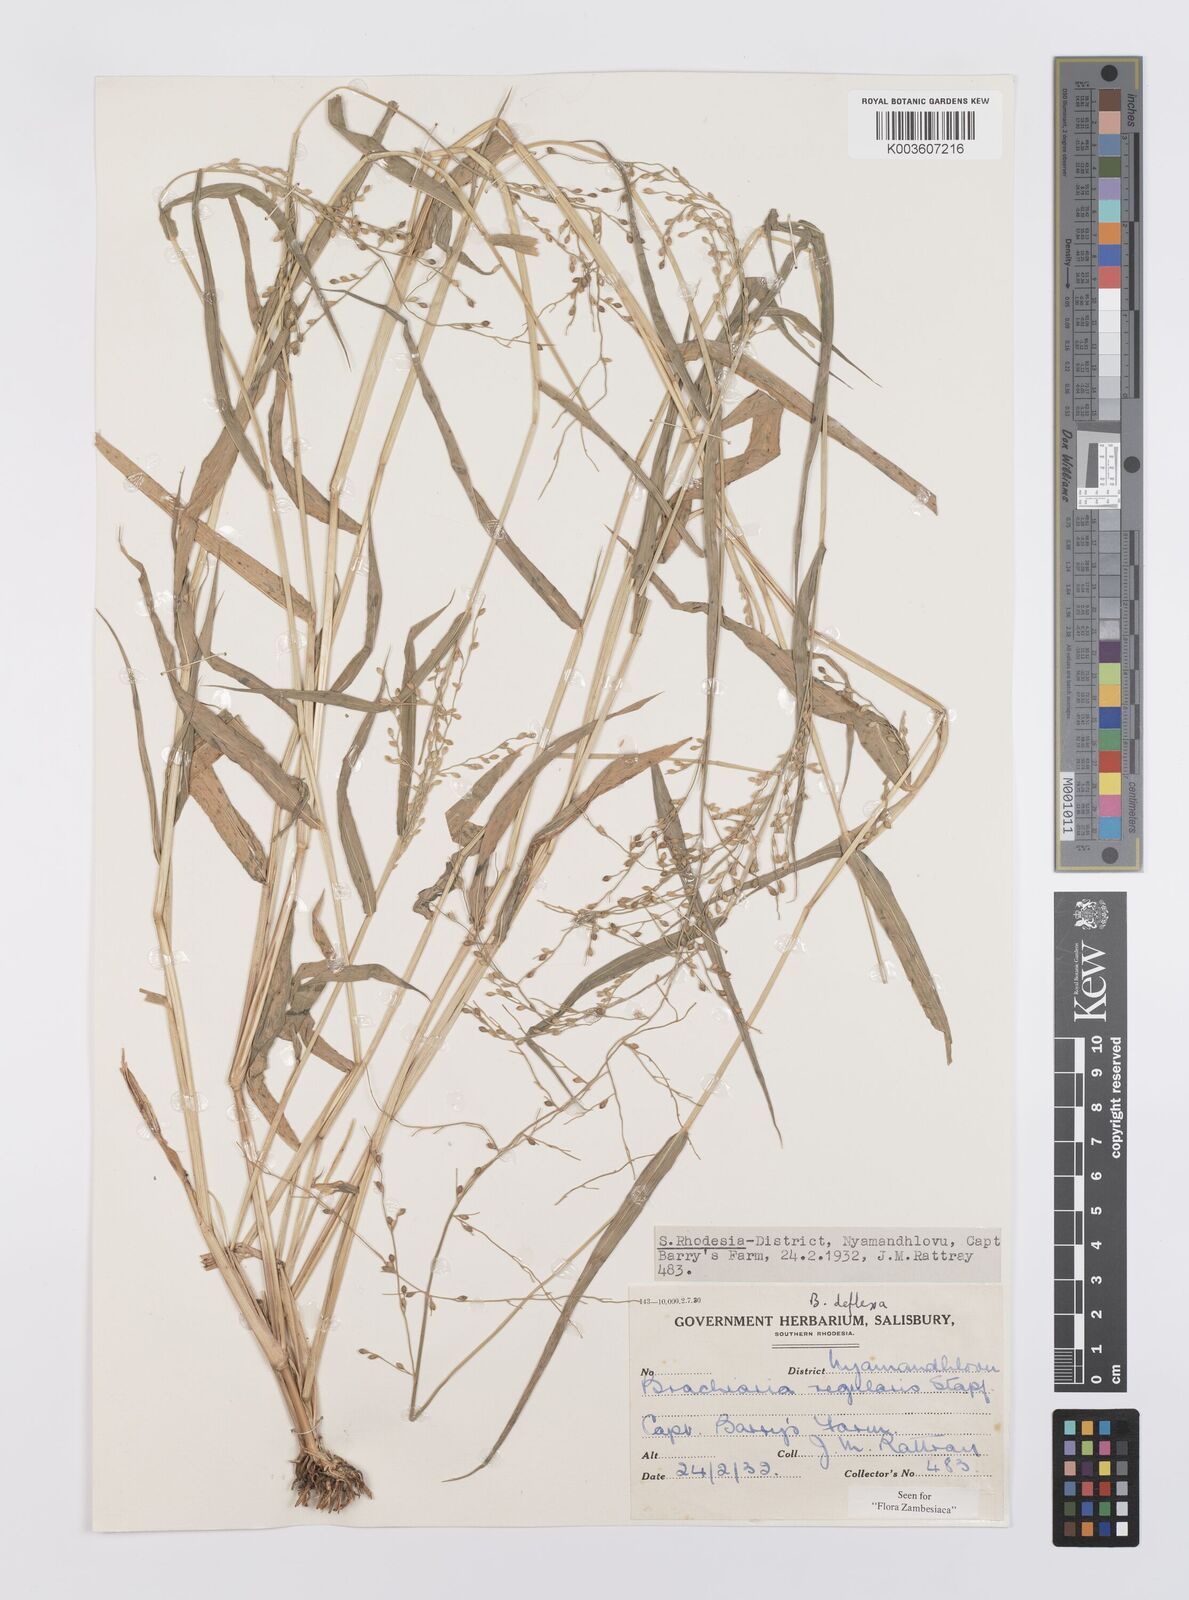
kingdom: Plantae
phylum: Tracheophyta
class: Liliopsida
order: Poales
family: Poaceae
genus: Urochloa
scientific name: Urochloa deflexa
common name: Guinea millet
